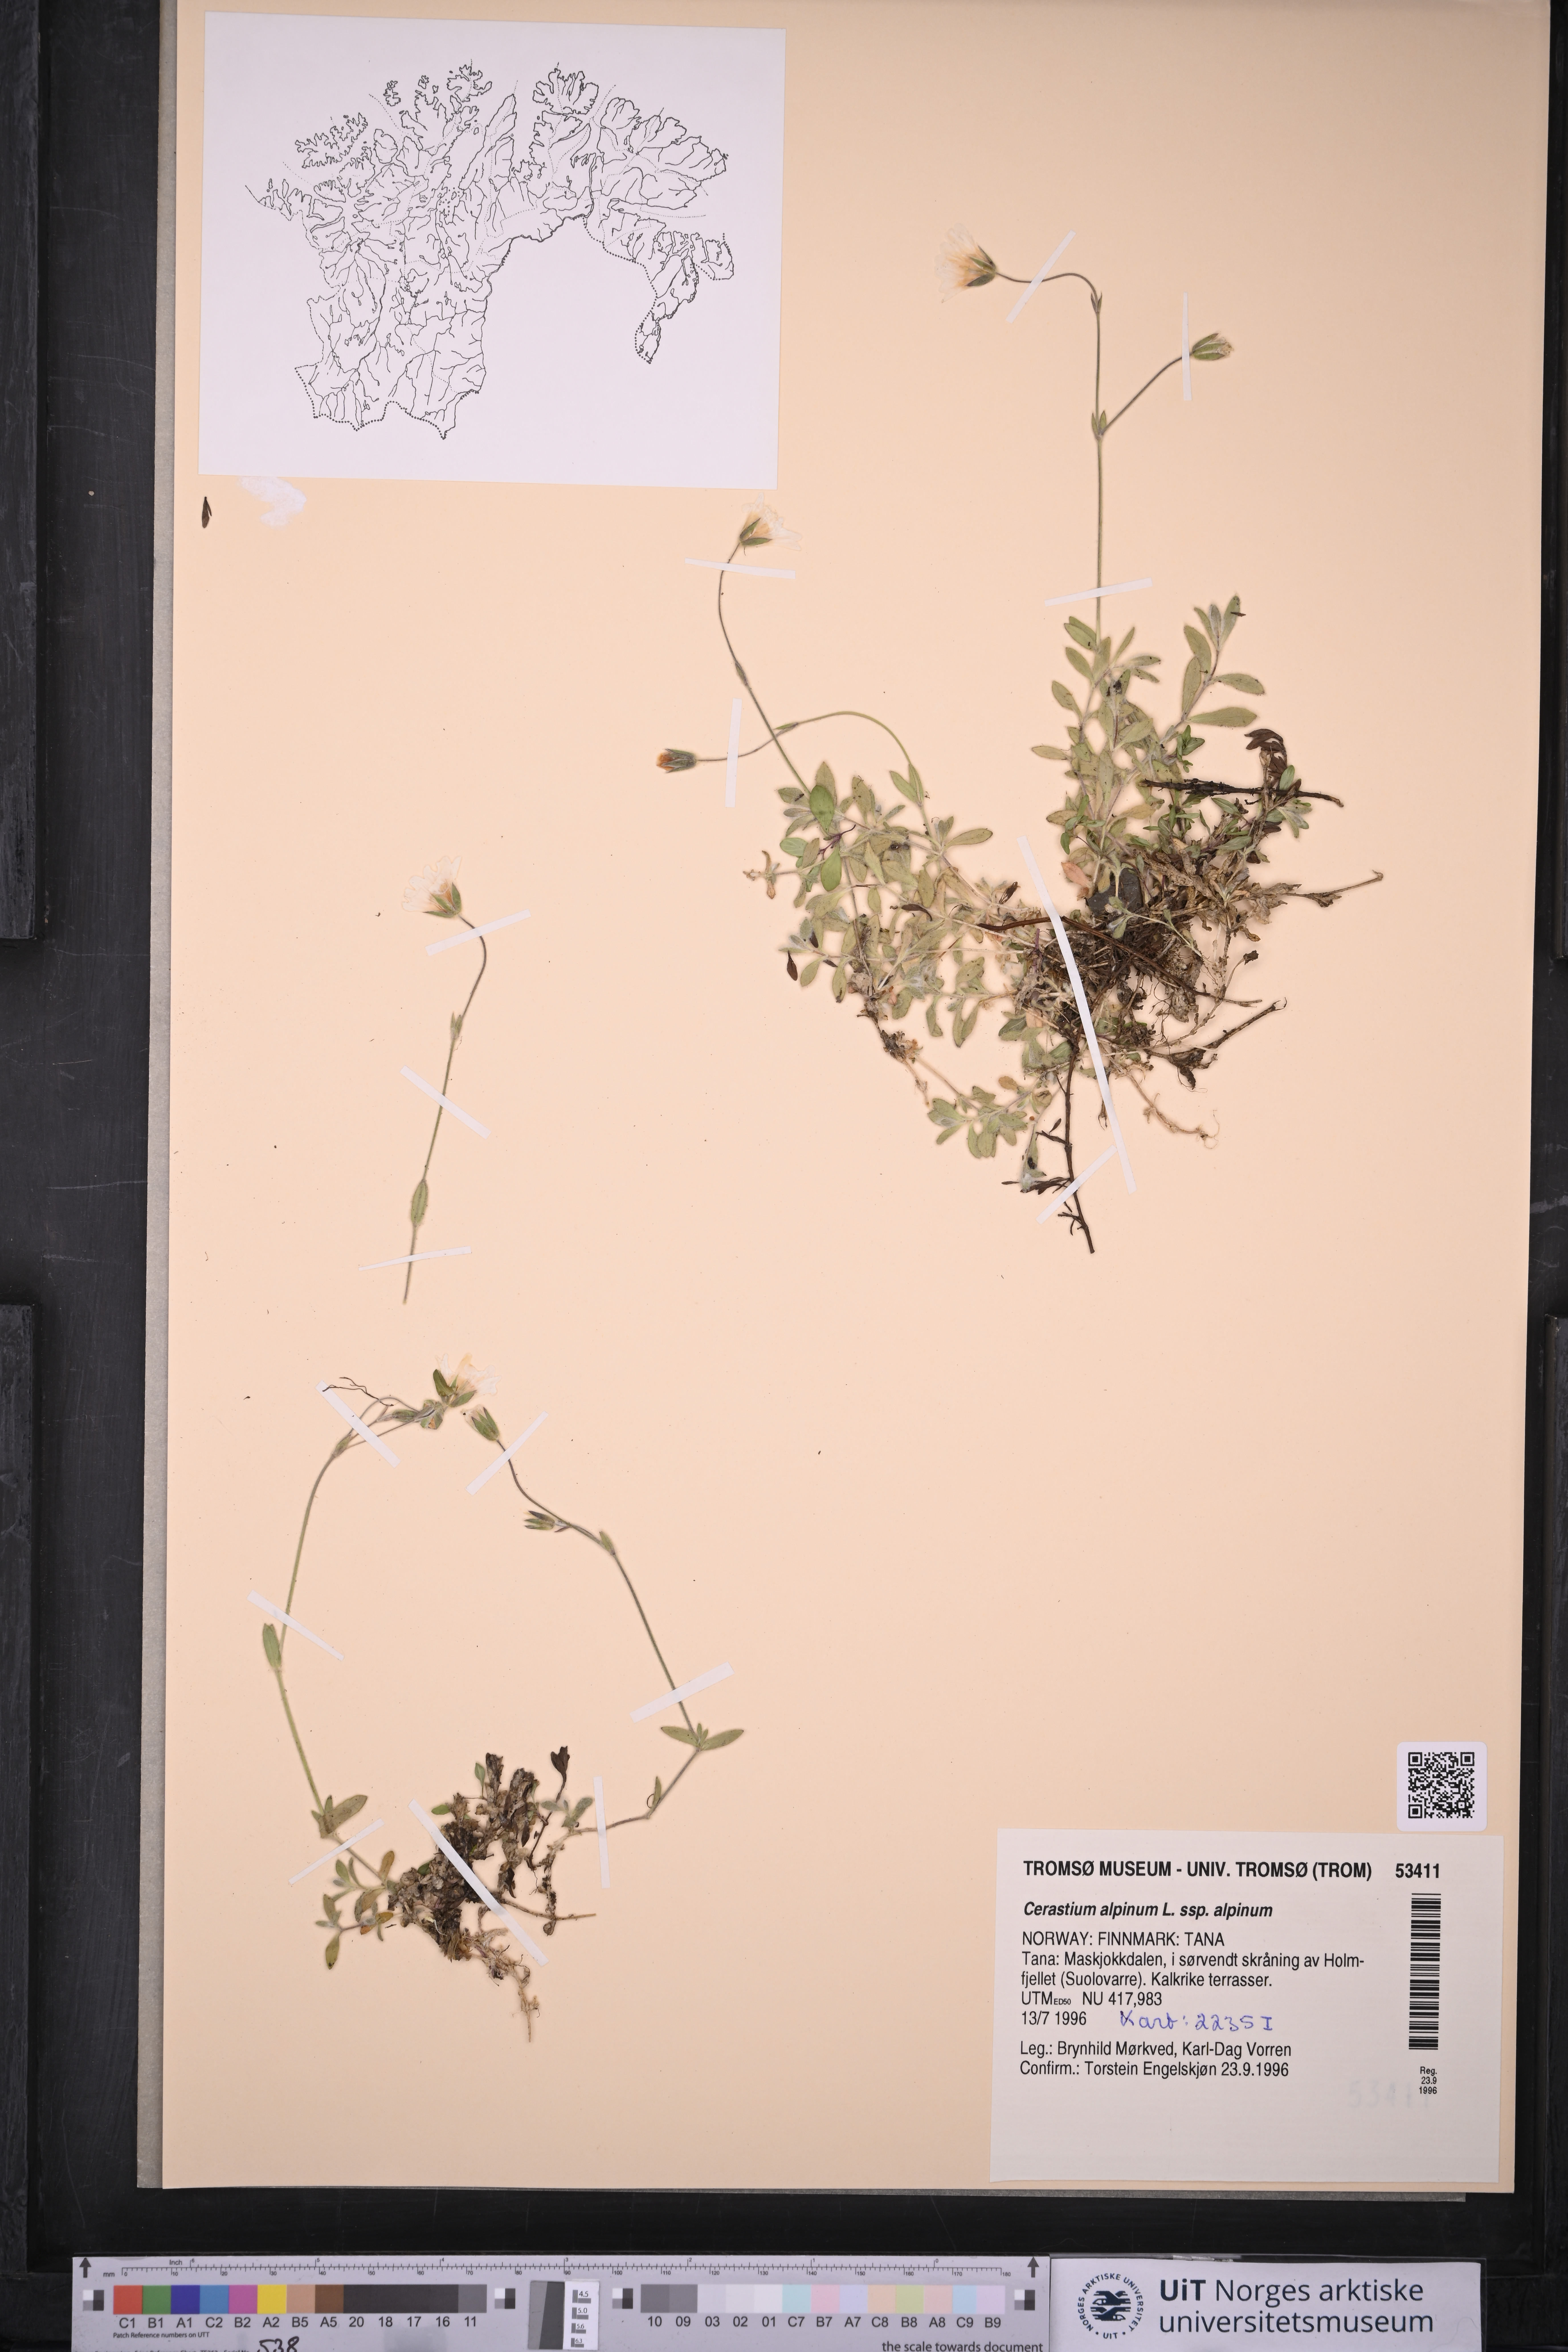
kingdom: Plantae
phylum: Tracheophyta
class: Magnoliopsida
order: Caryophyllales
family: Caryophyllaceae
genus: Cerastium
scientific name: Cerastium alpinum
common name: Alpine mouse-ear
